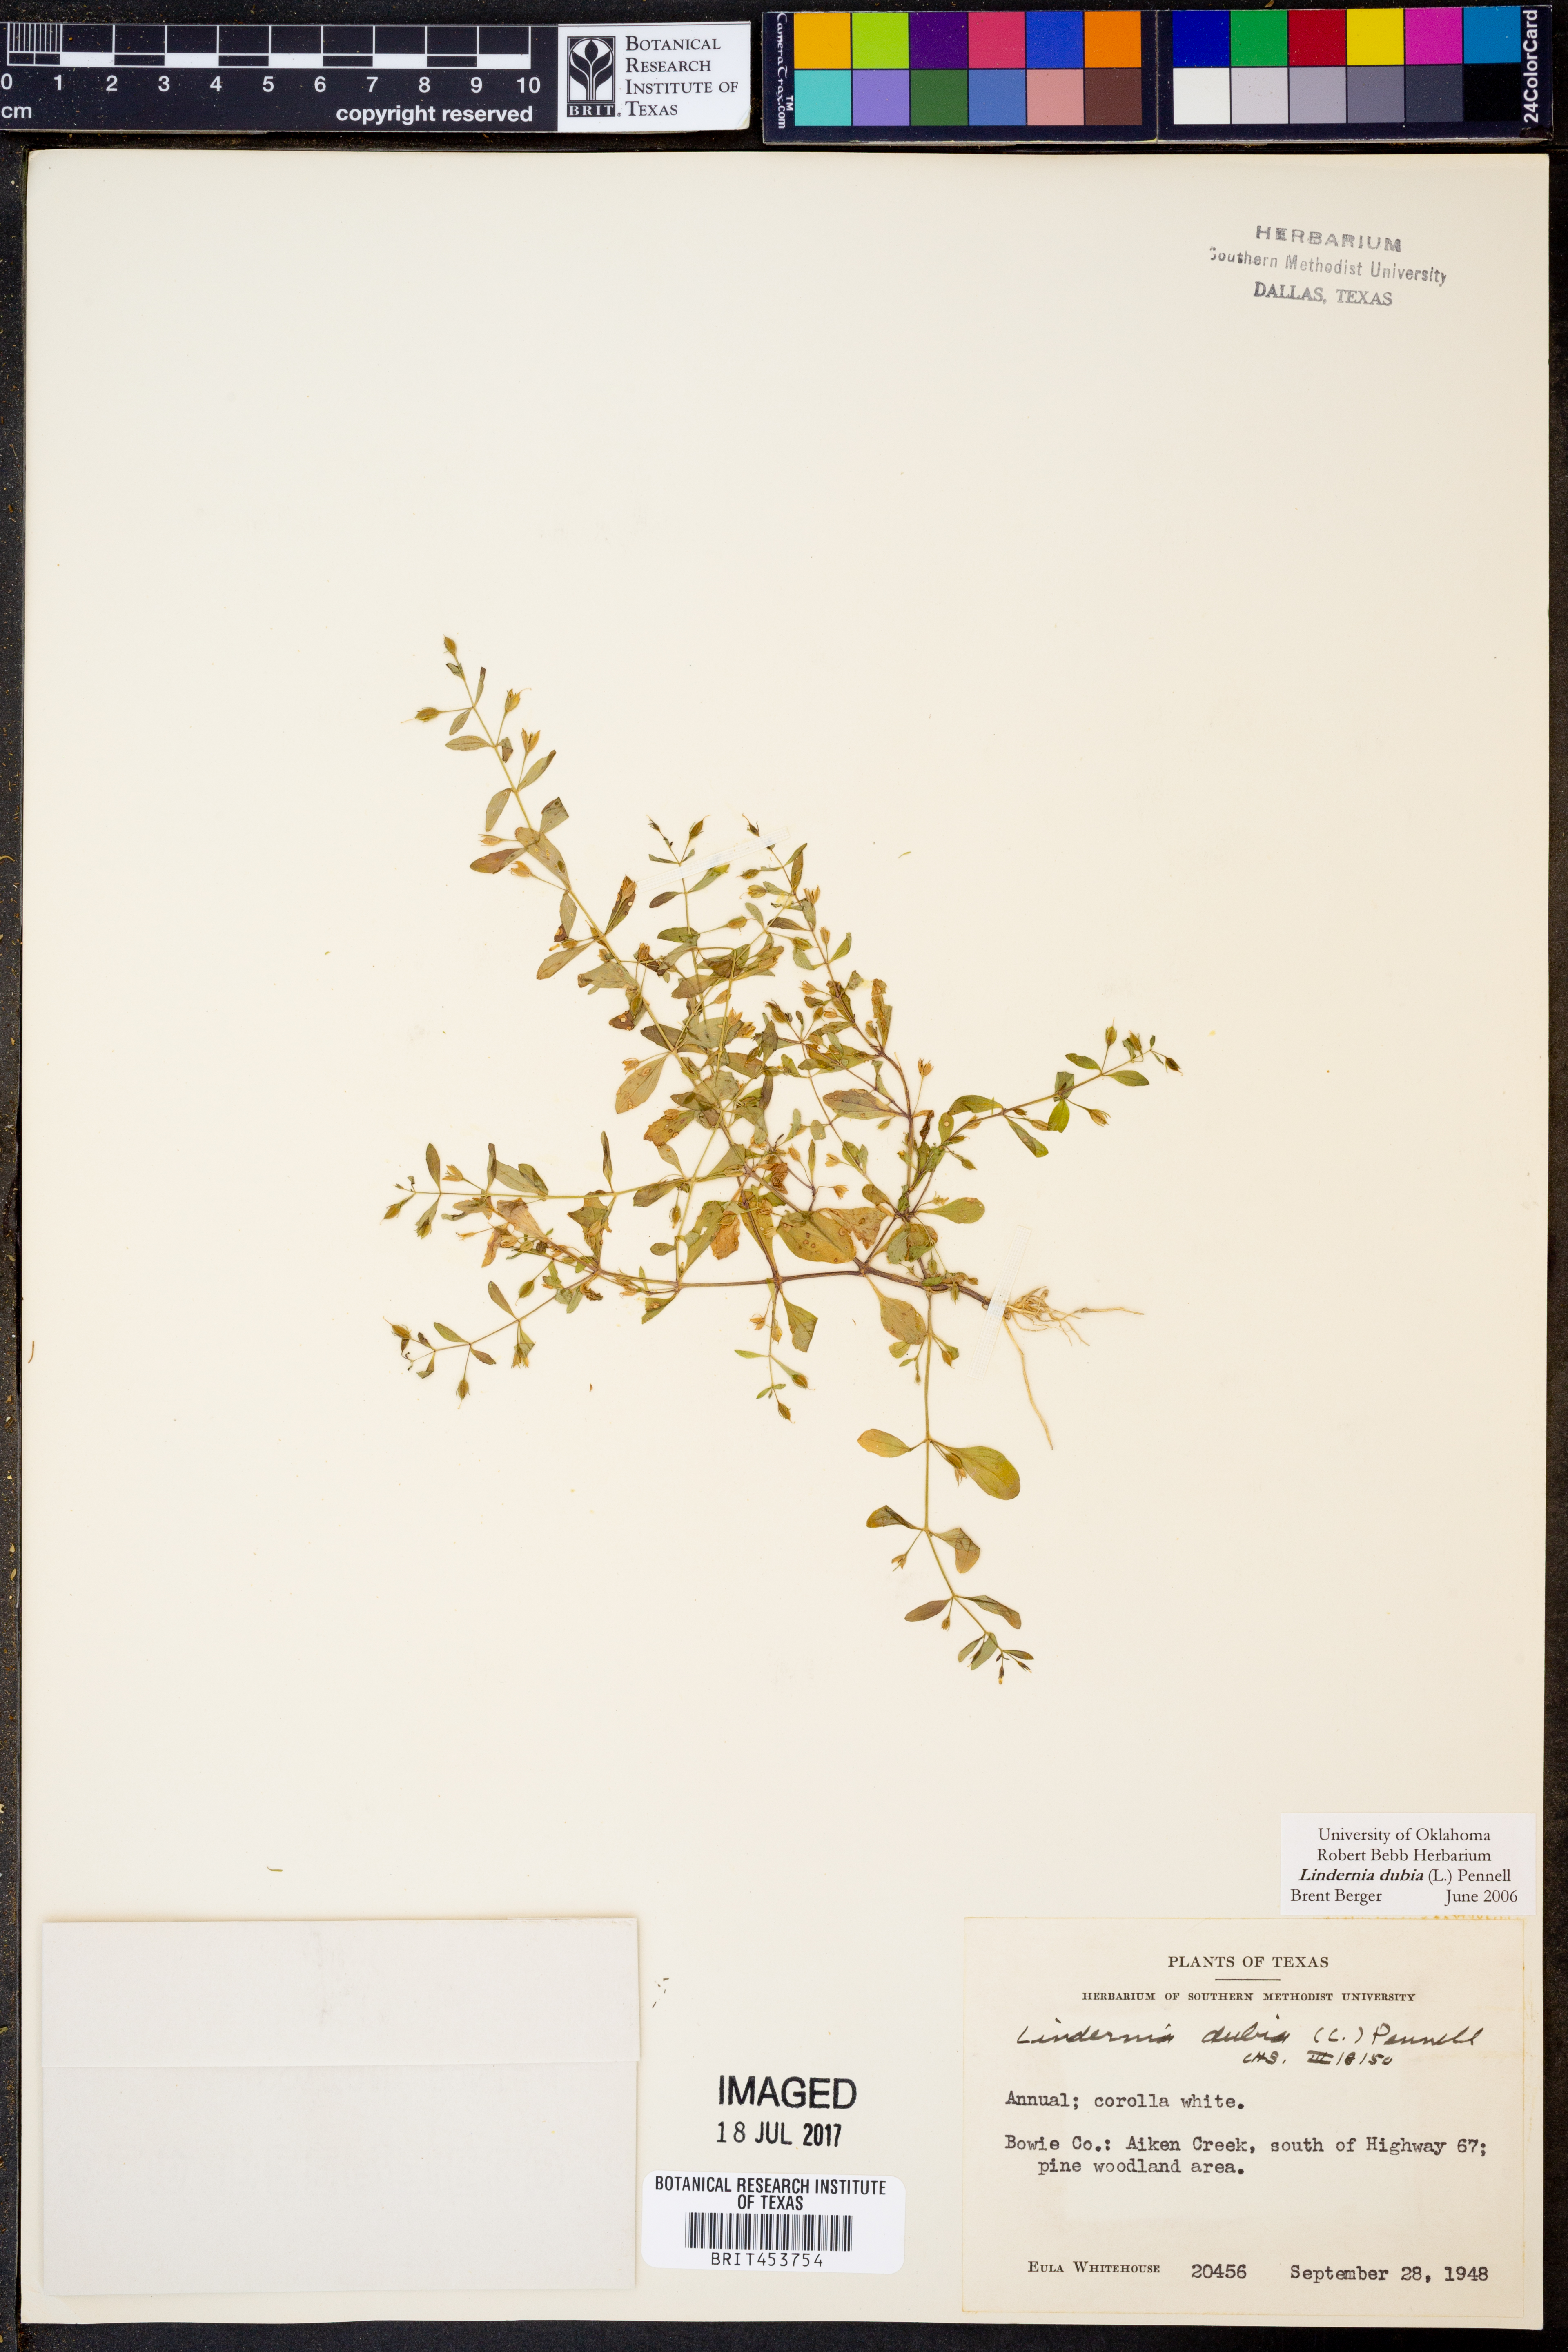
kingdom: Plantae
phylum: Tracheophyta
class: Magnoliopsida
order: Lamiales
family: Linderniaceae
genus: Lindernia
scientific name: Lindernia dubia
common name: Annual false pimpernel
